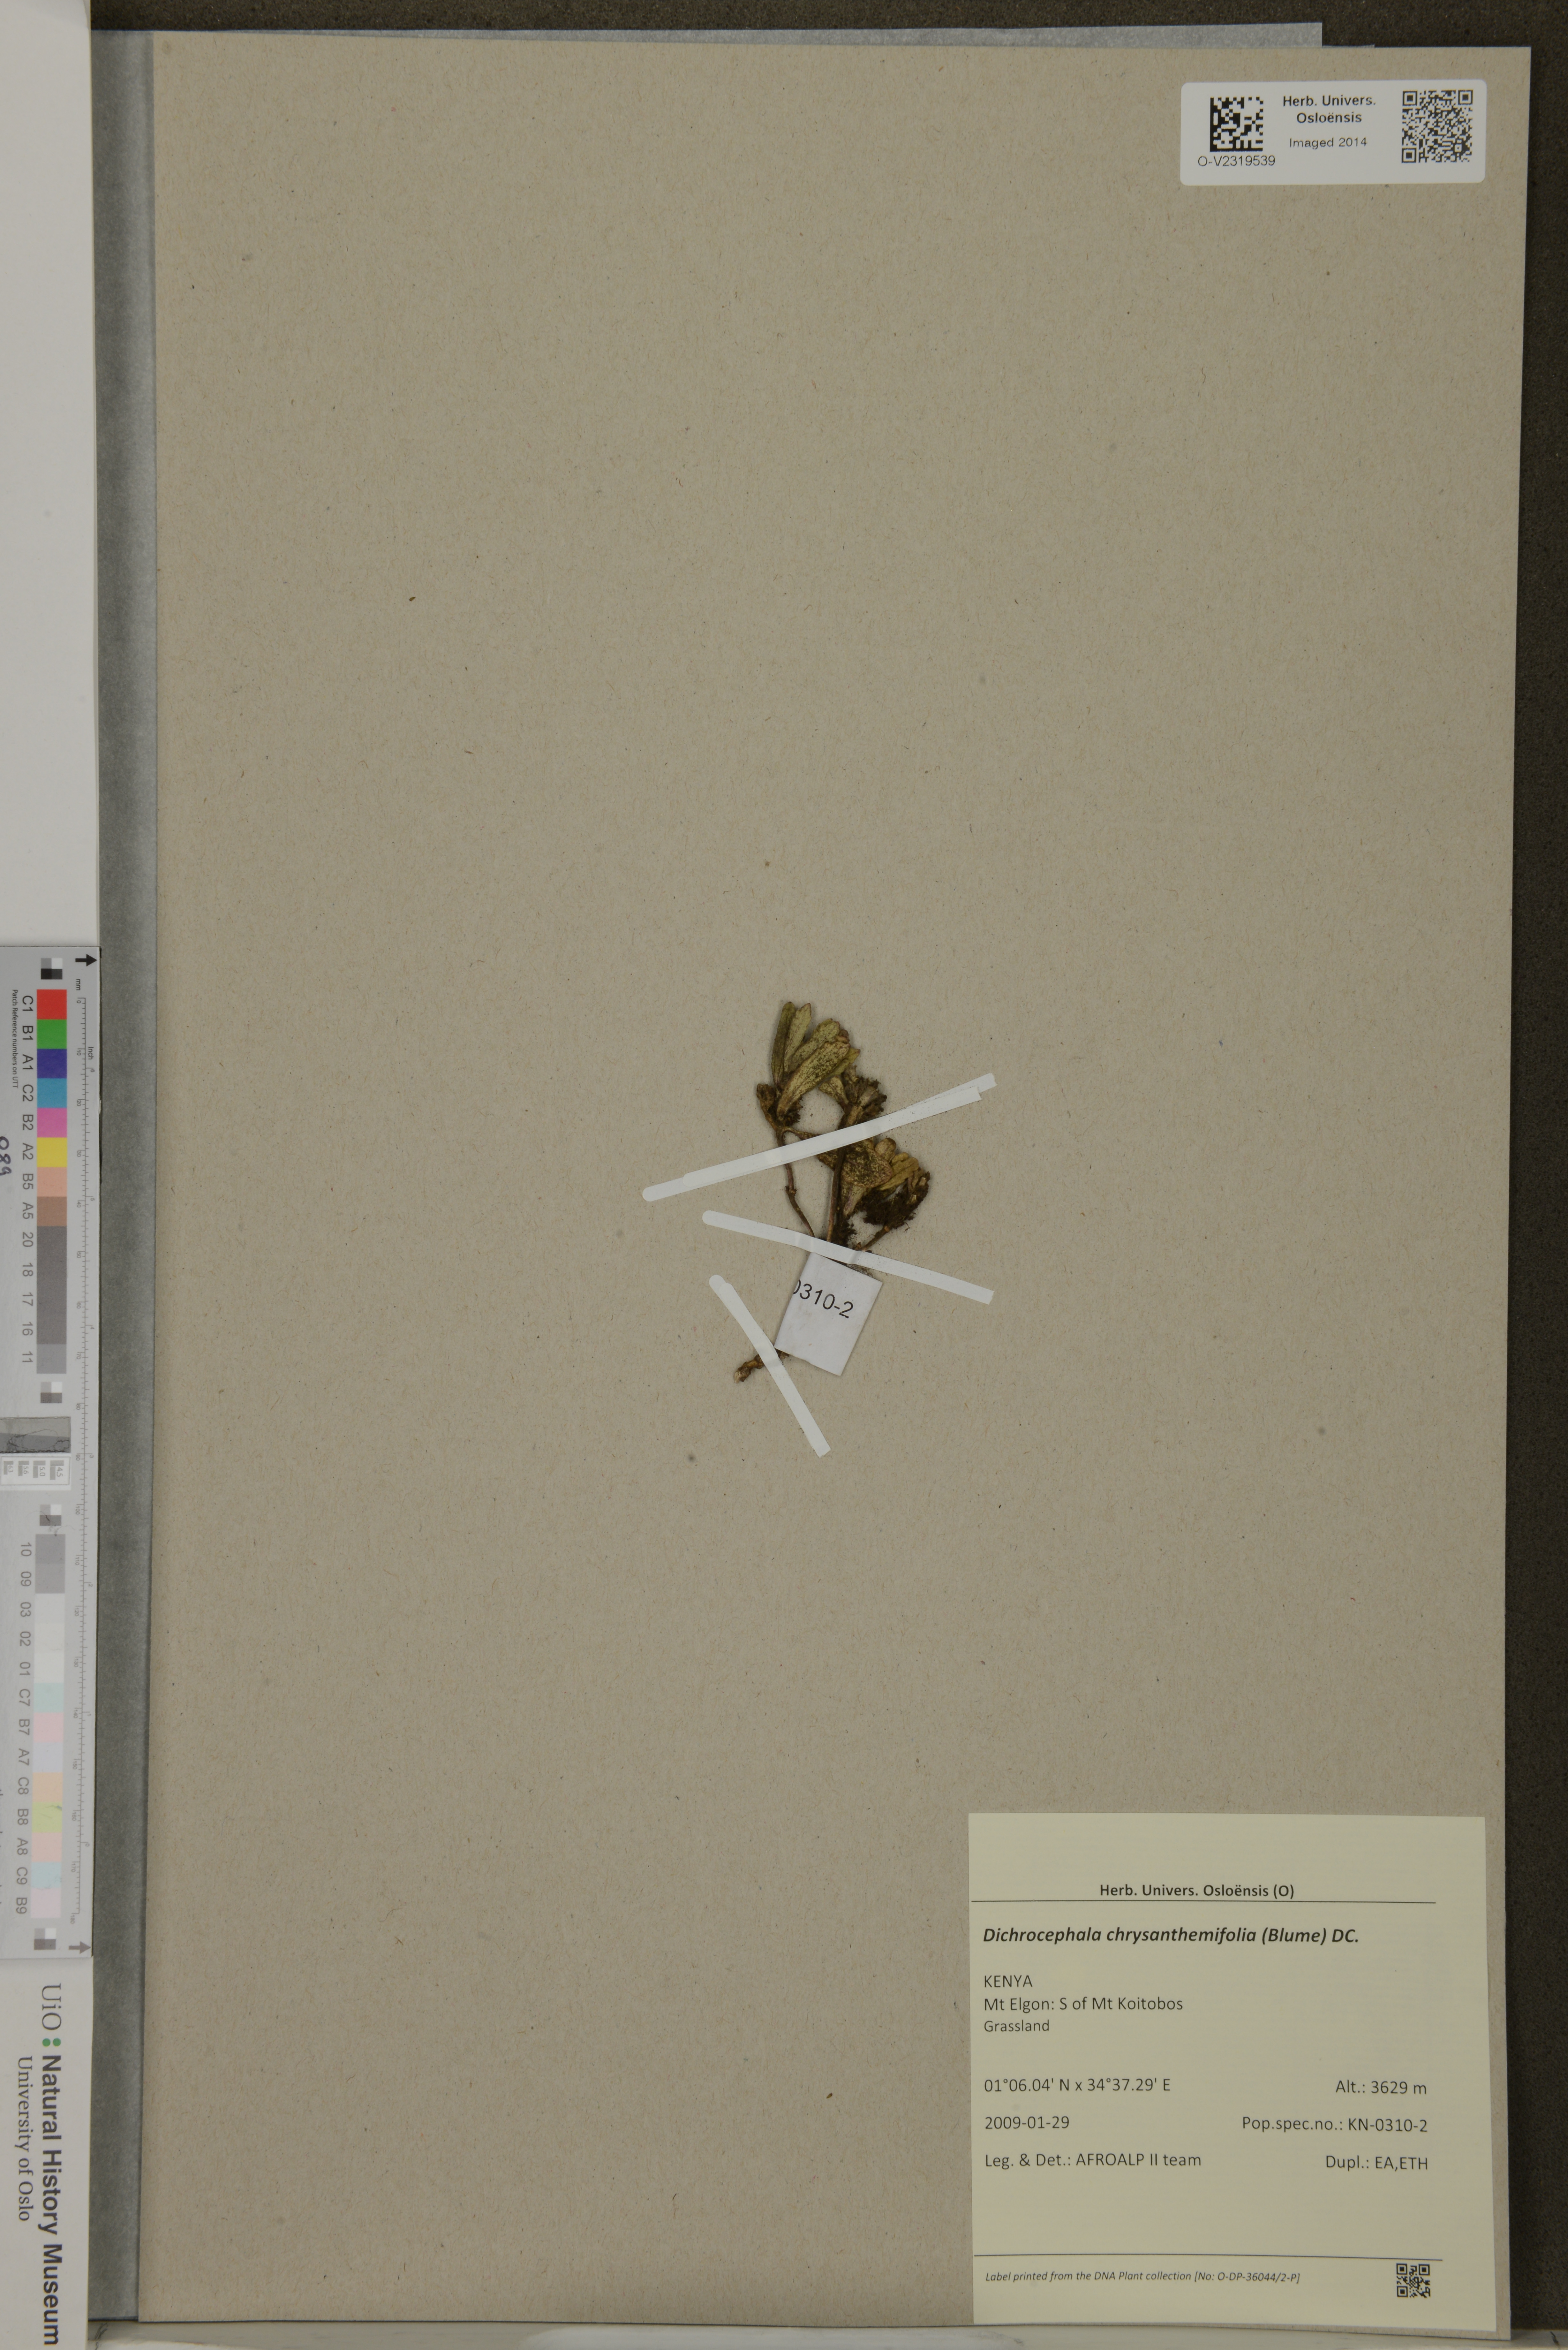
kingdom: Plantae
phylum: Tracheophyta
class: Magnoliopsida
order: Asterales
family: Asteraceae
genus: Dichrocephala
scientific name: Dichrocephala chrysanthemifolia
